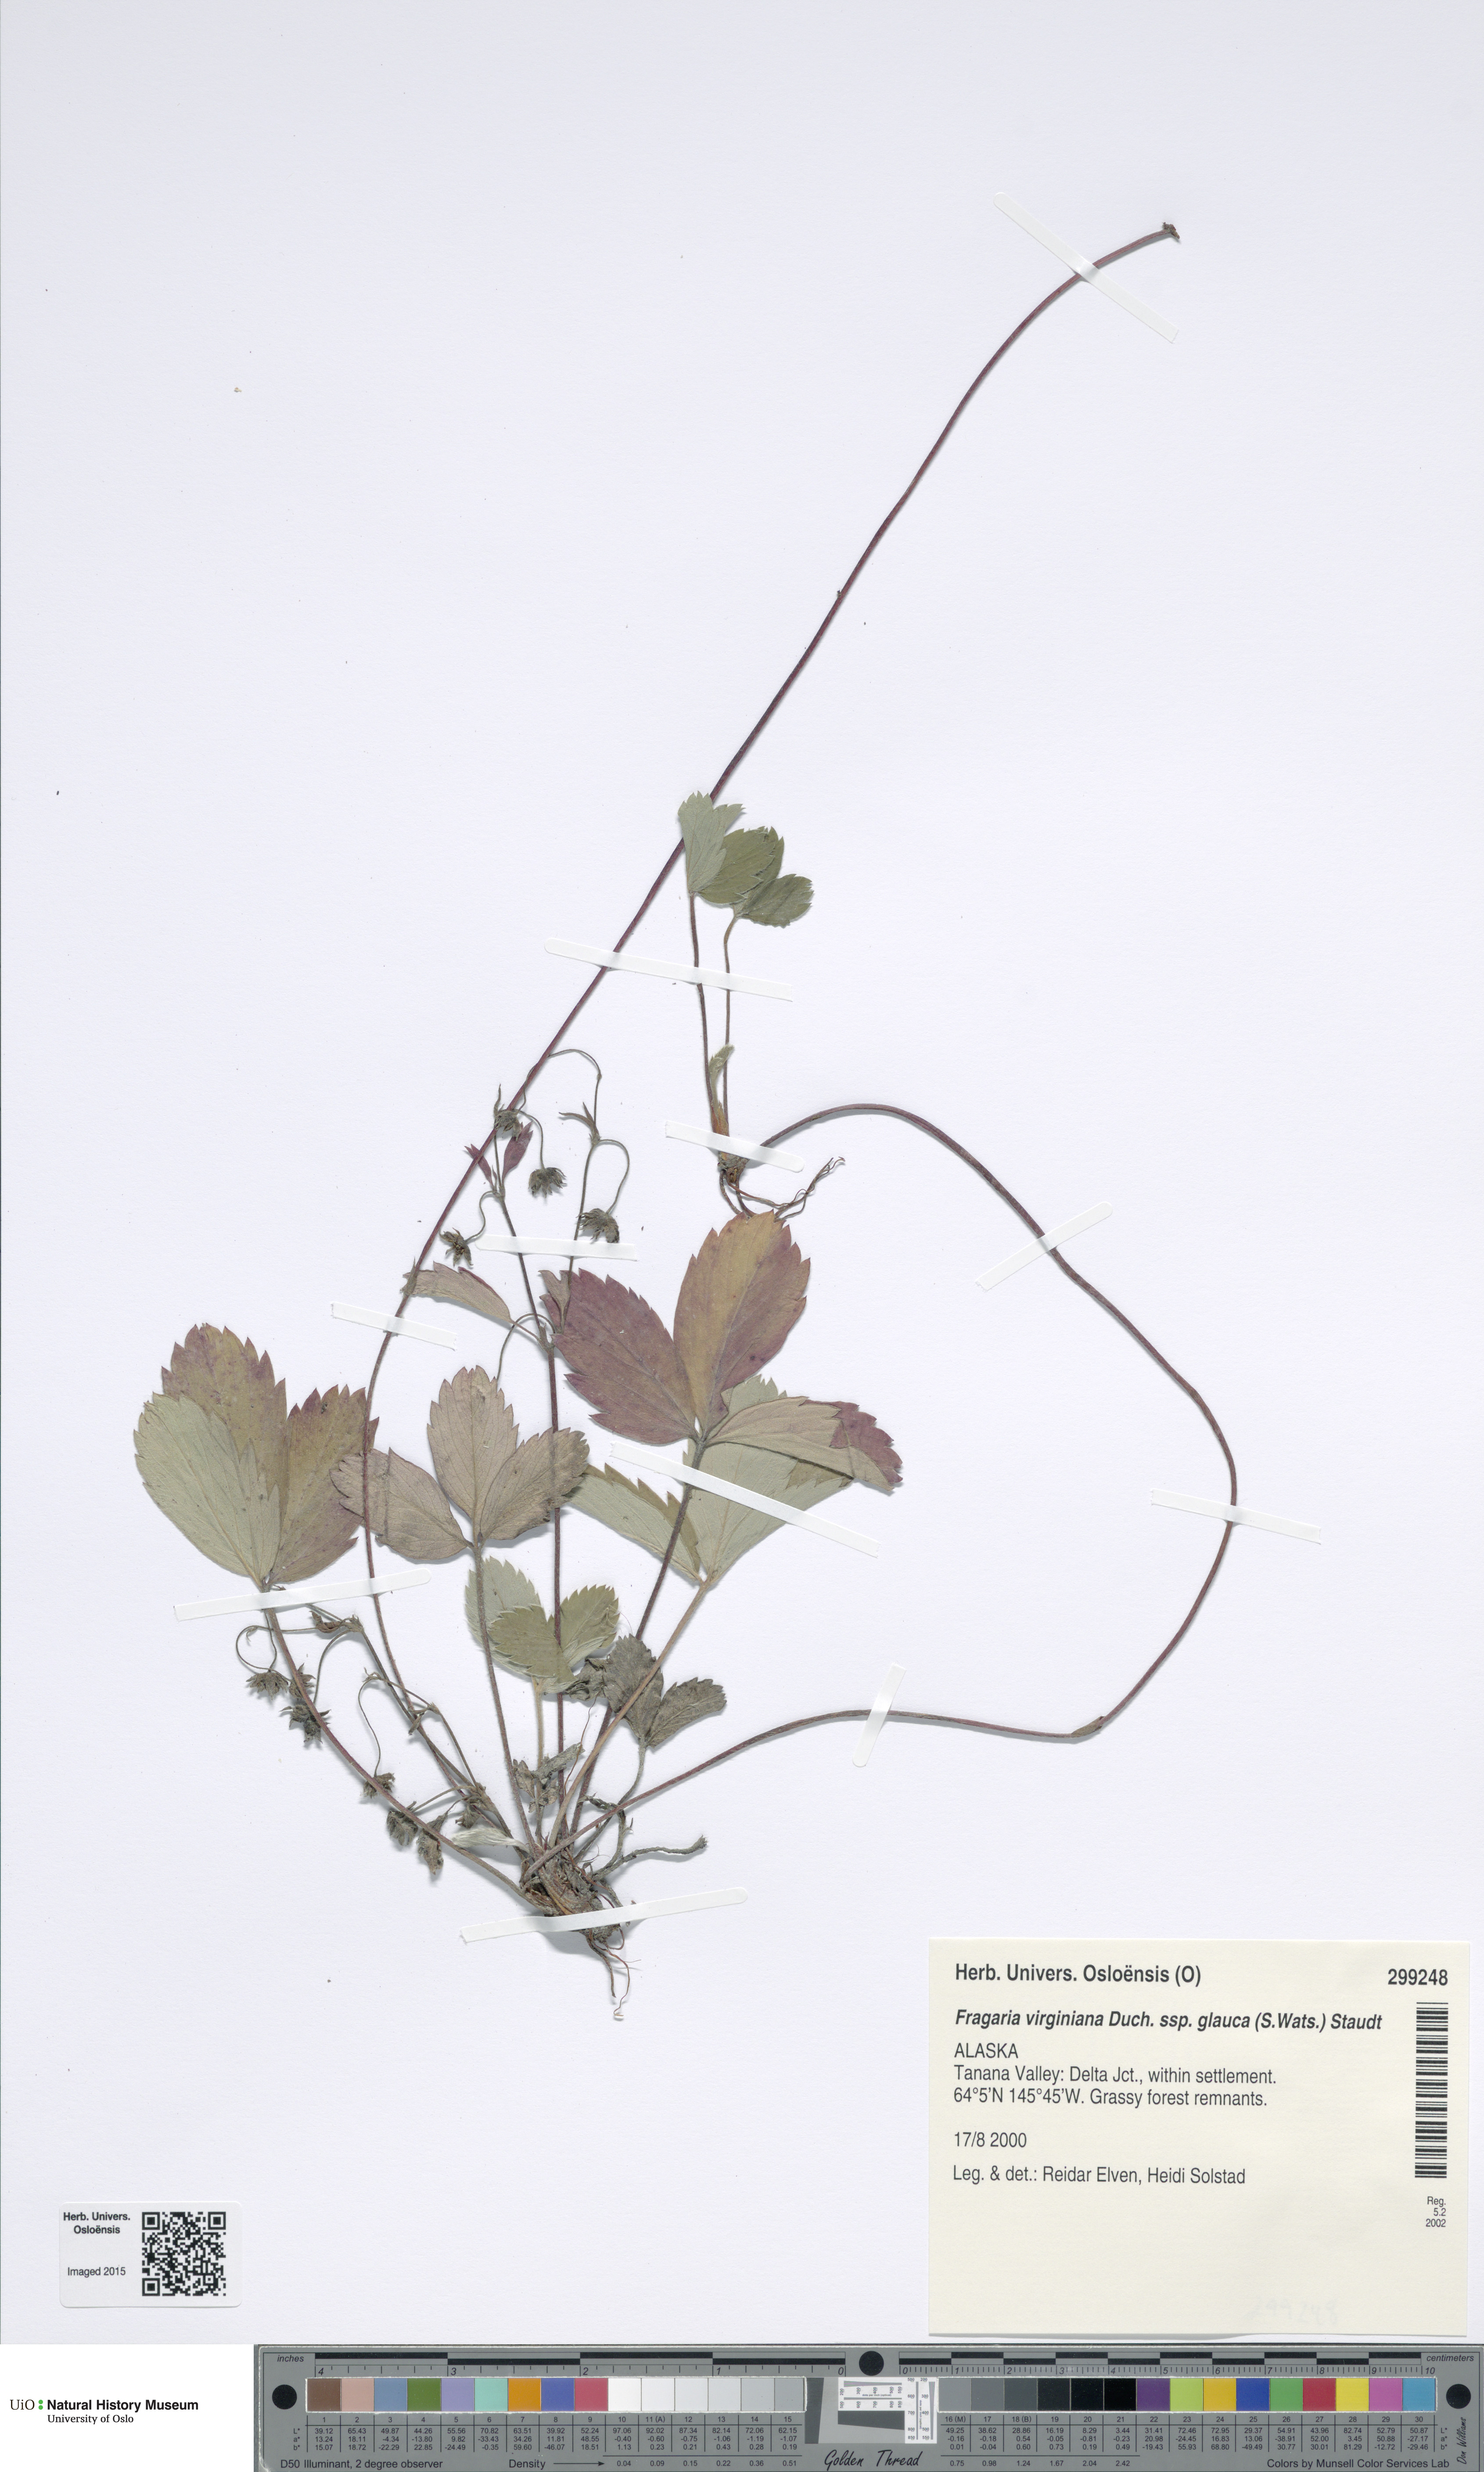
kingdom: Plantae
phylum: Tracheophyta
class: Magnoliopsida
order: Rosales
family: Rosaceae
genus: Fragaria
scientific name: Fragaria virginiana
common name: Thickleaved wild strawberry
